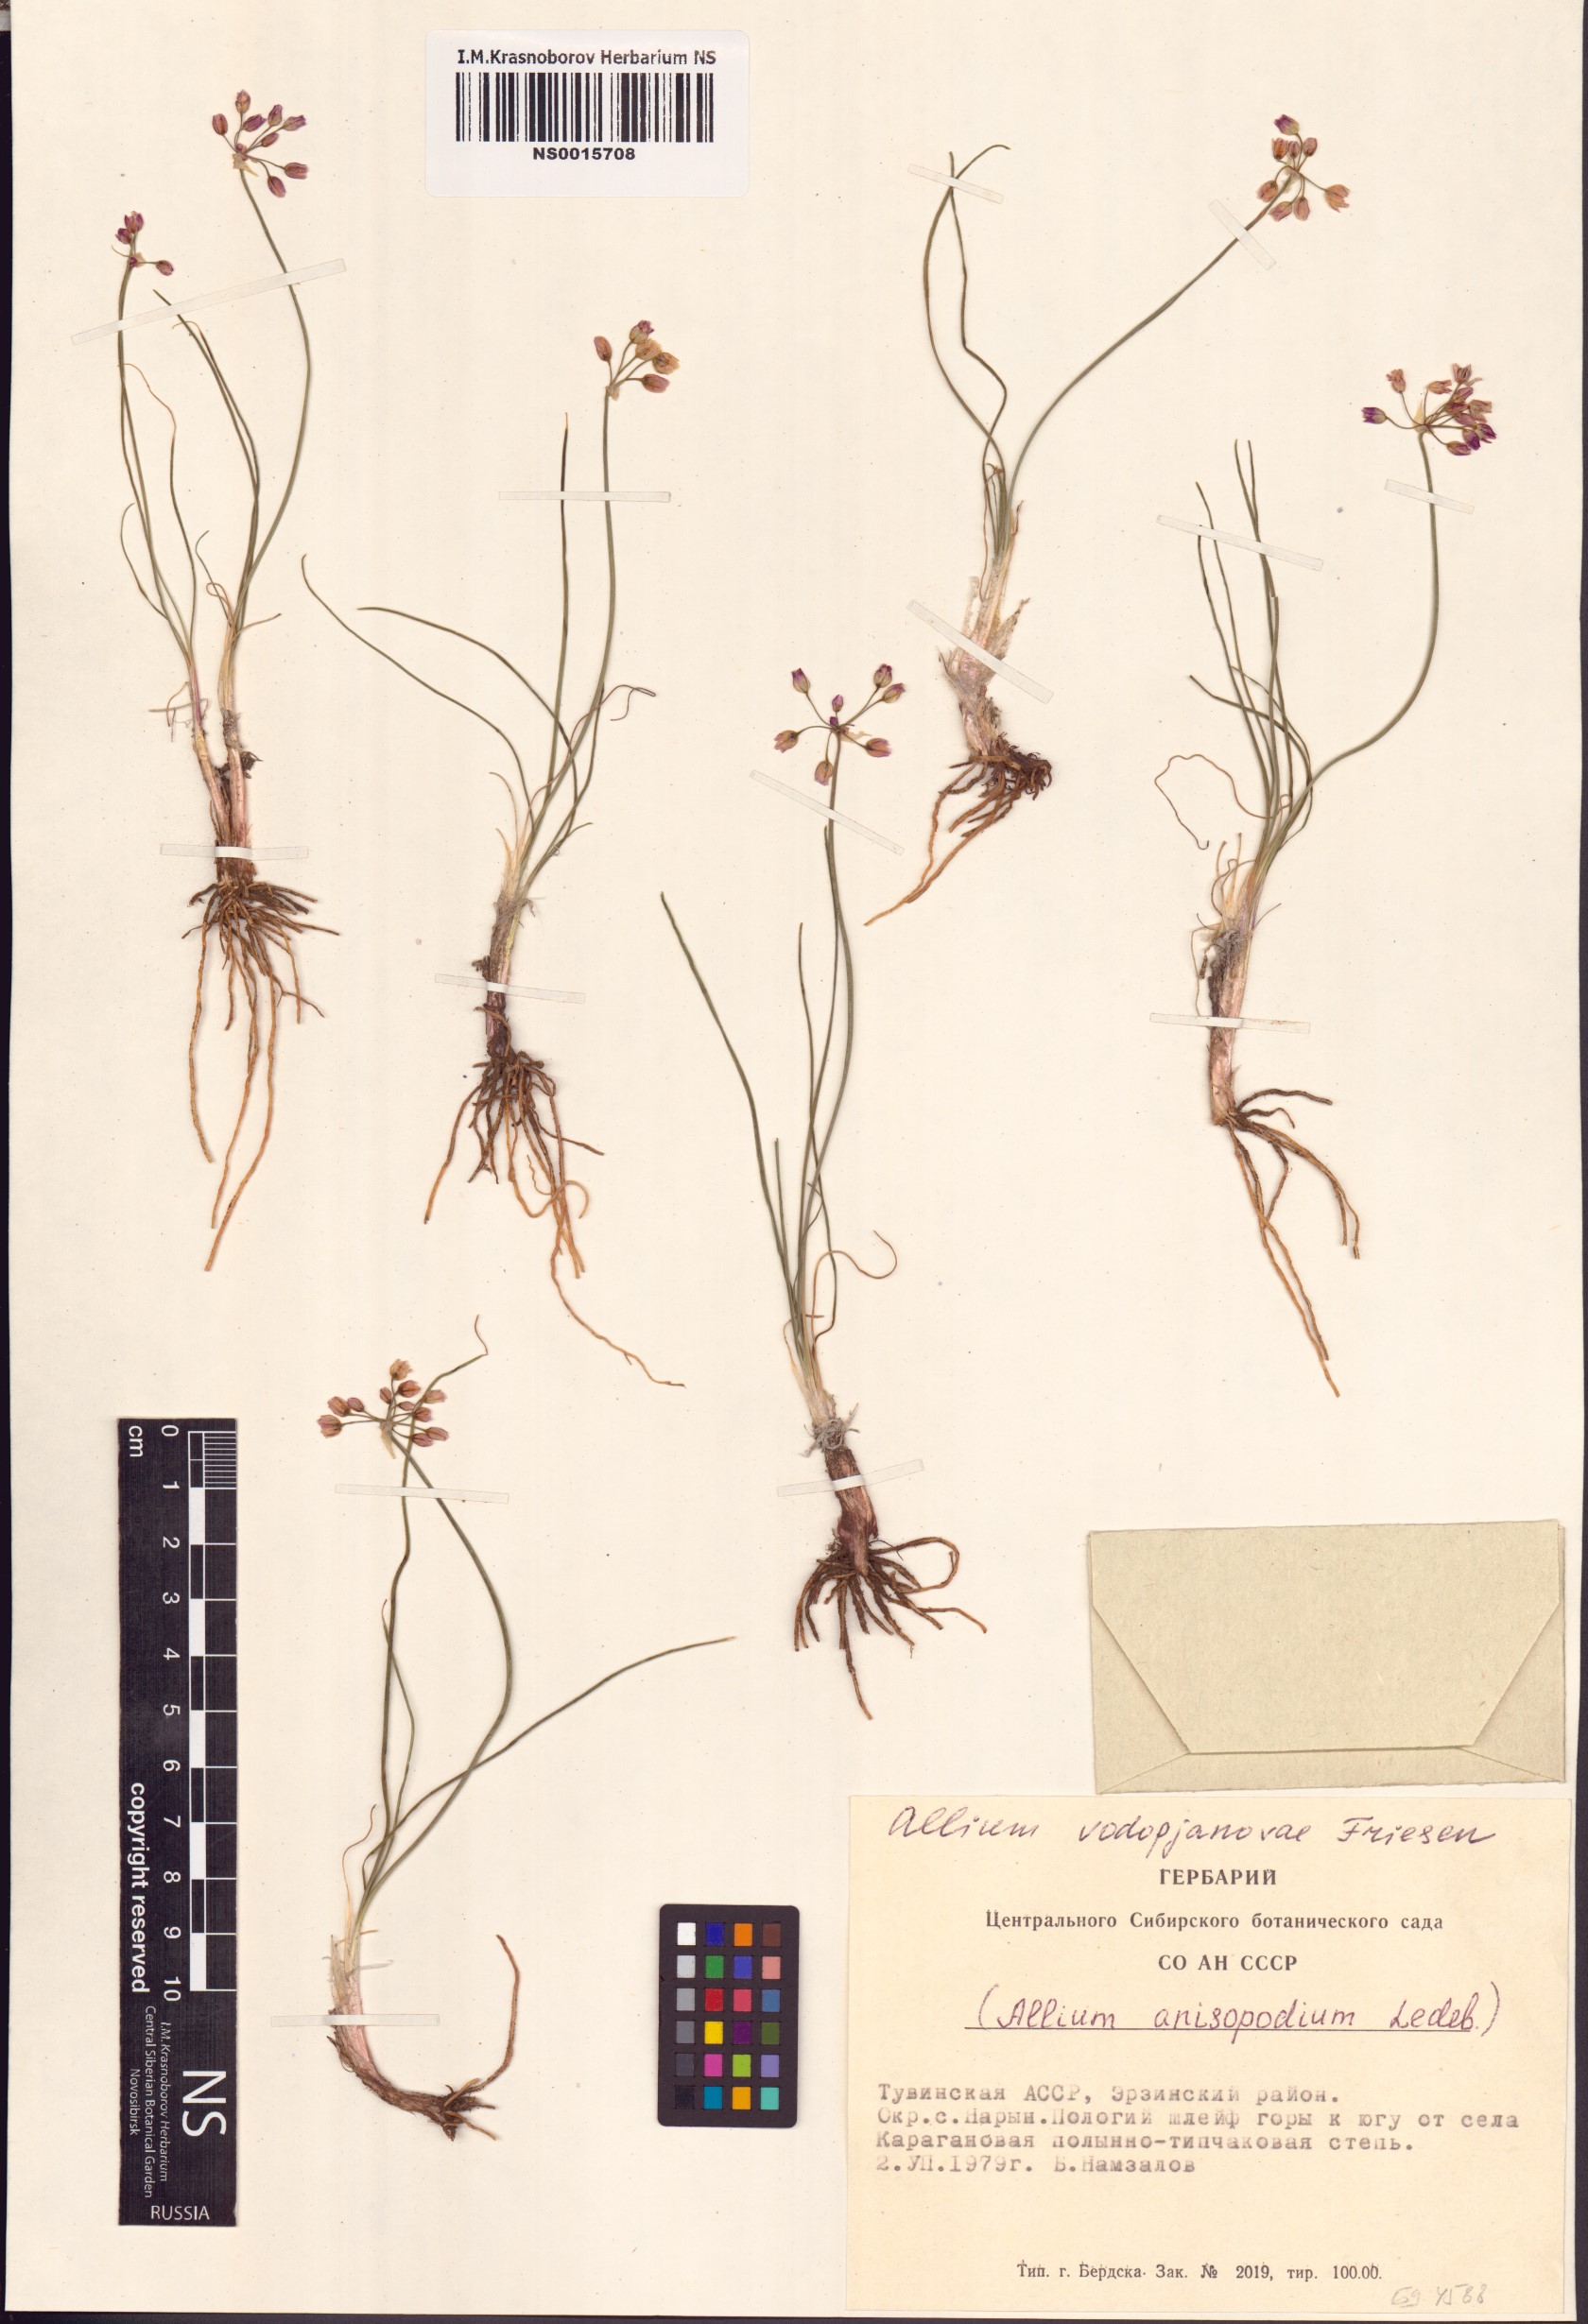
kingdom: Plantae
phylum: Tracheophyta
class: Liliopsida
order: Asparagales
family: Amaryllidaceae
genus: Allium
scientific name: Allium vodopjanovae
